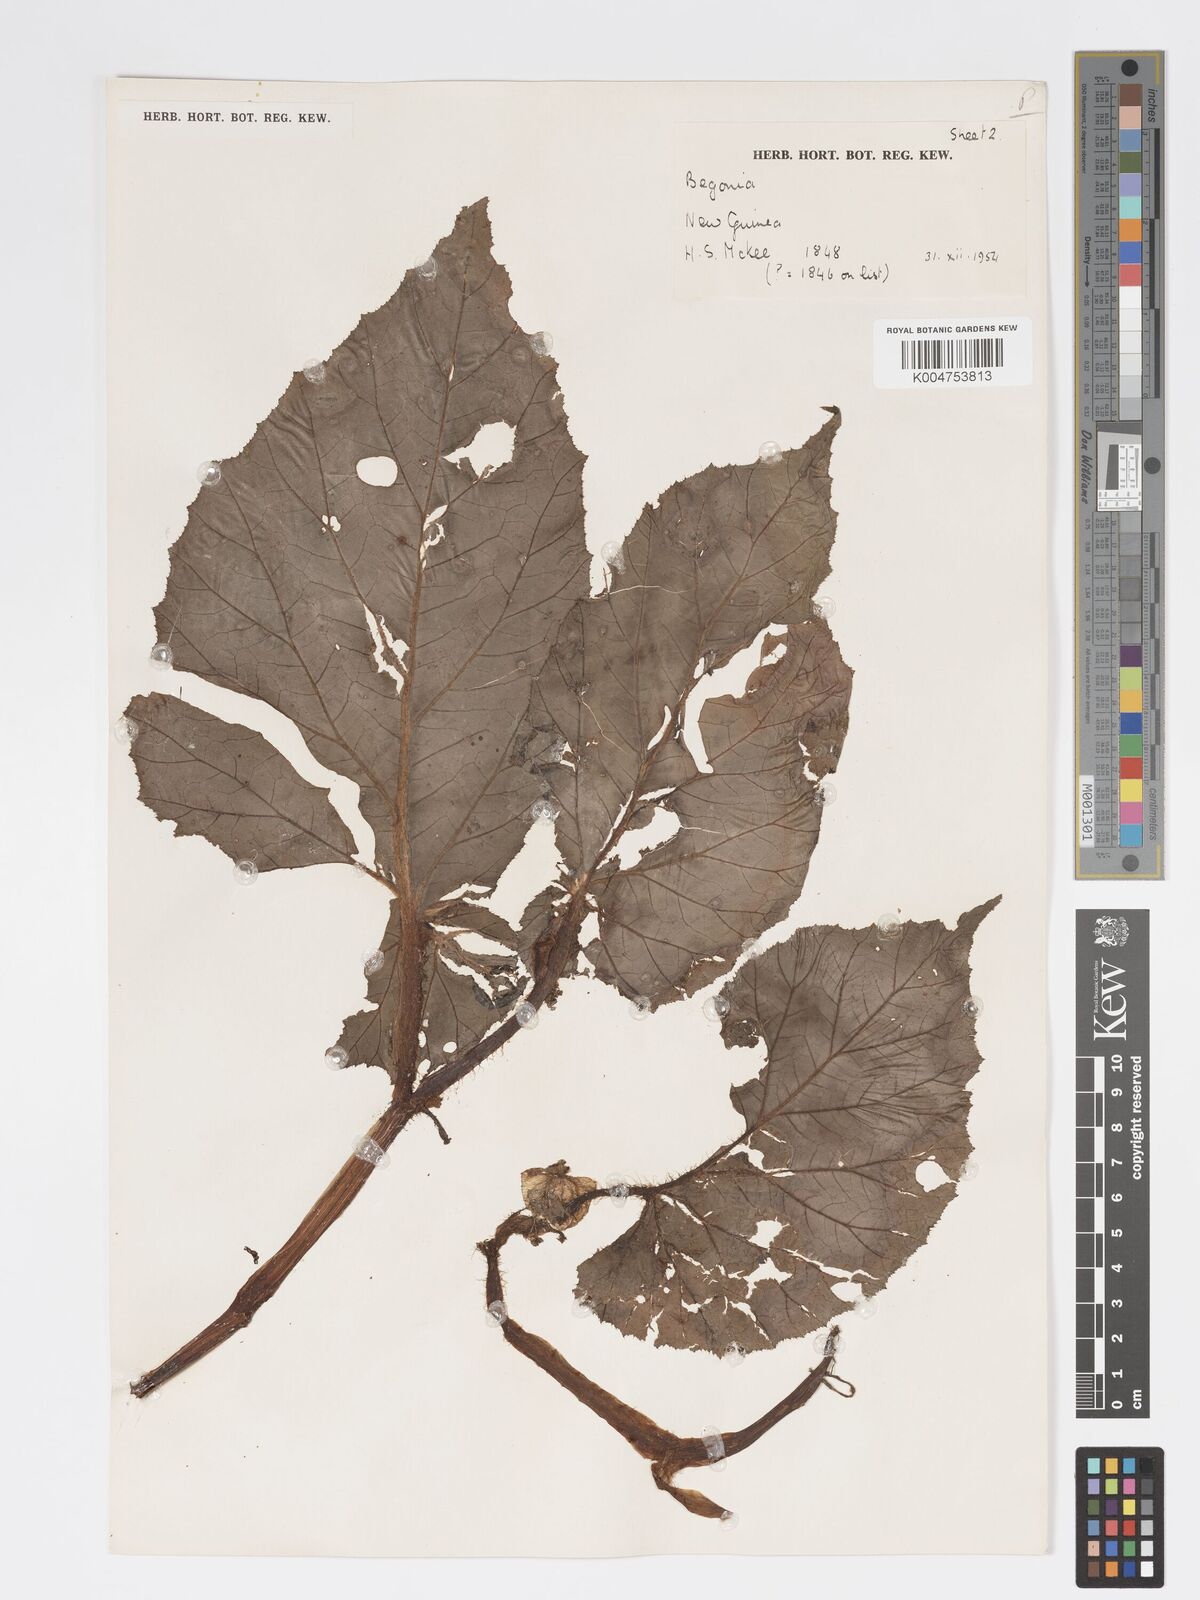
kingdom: Plantae
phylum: Tracheophyta
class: Magnoliopsida
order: Cucurbitales
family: Begoniaceae
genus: Begonia
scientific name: Begonia torricellensis
